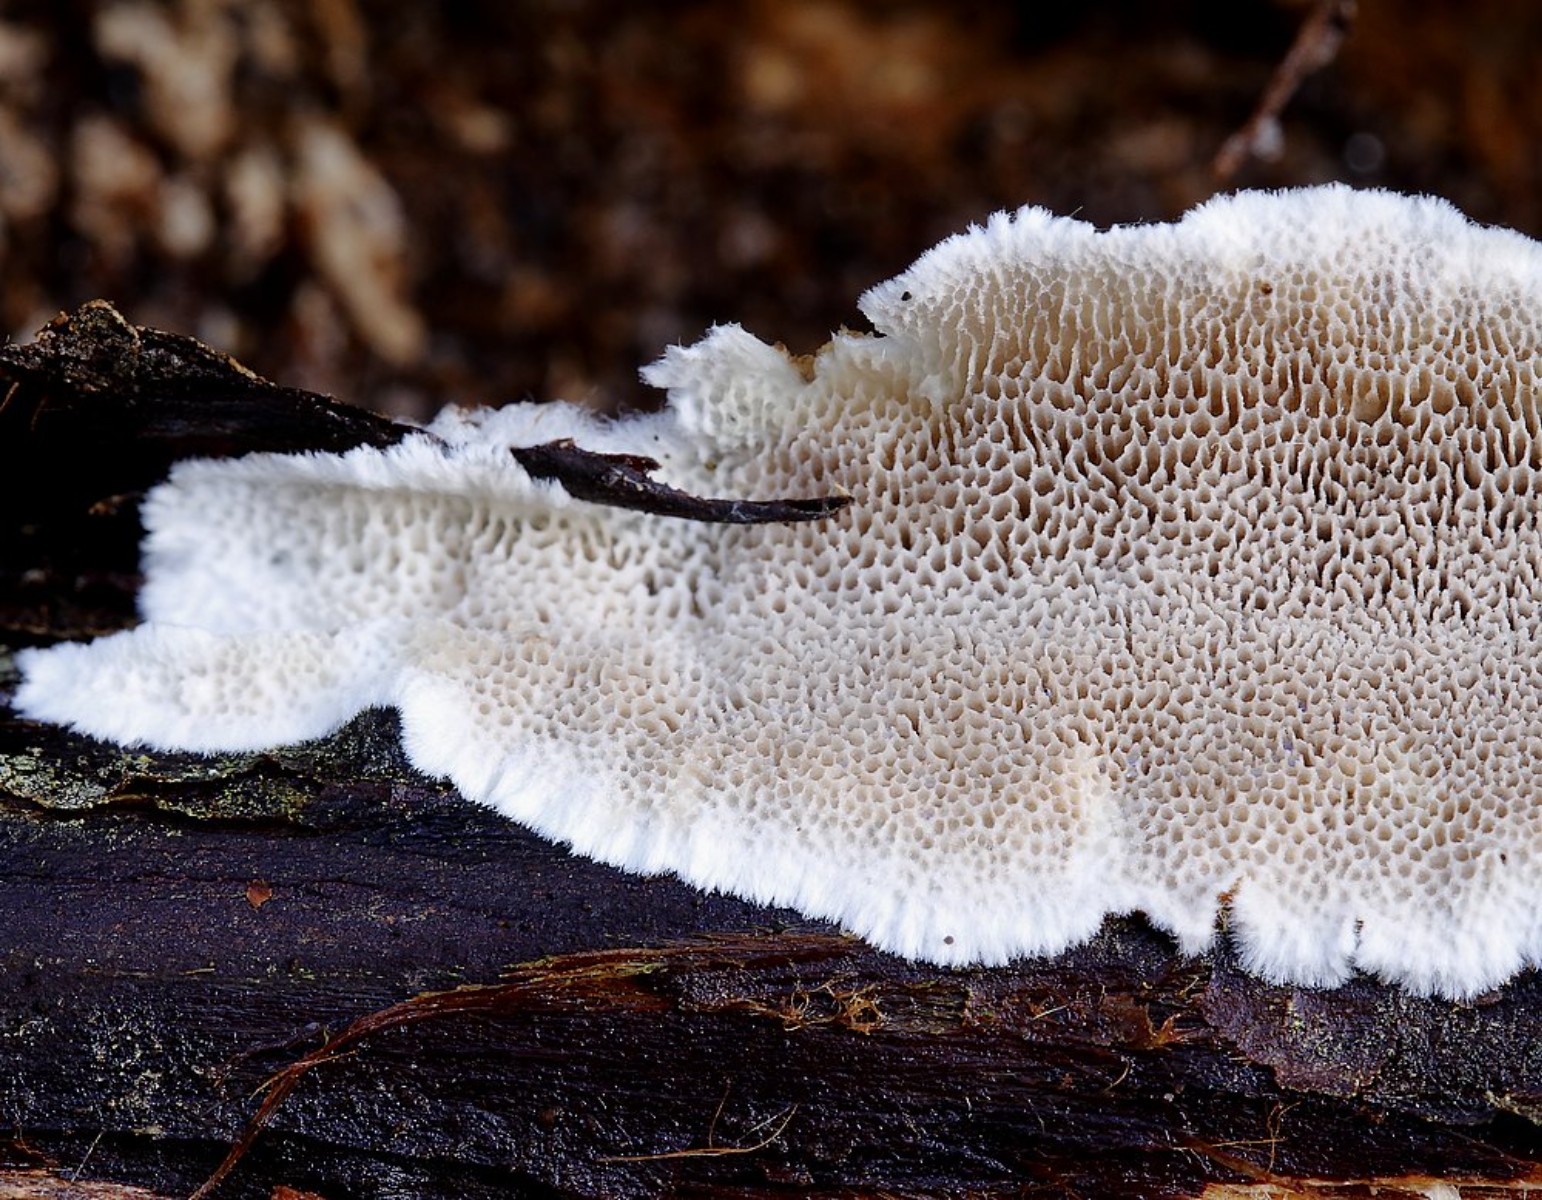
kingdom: Fungi
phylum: Basidiomycota
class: Agaricomycetes
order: Polyporales
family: Gelatoporiaceae
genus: Cinereomyces
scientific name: Cinereomyces lindbladii
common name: almindelig gråporesvamp
